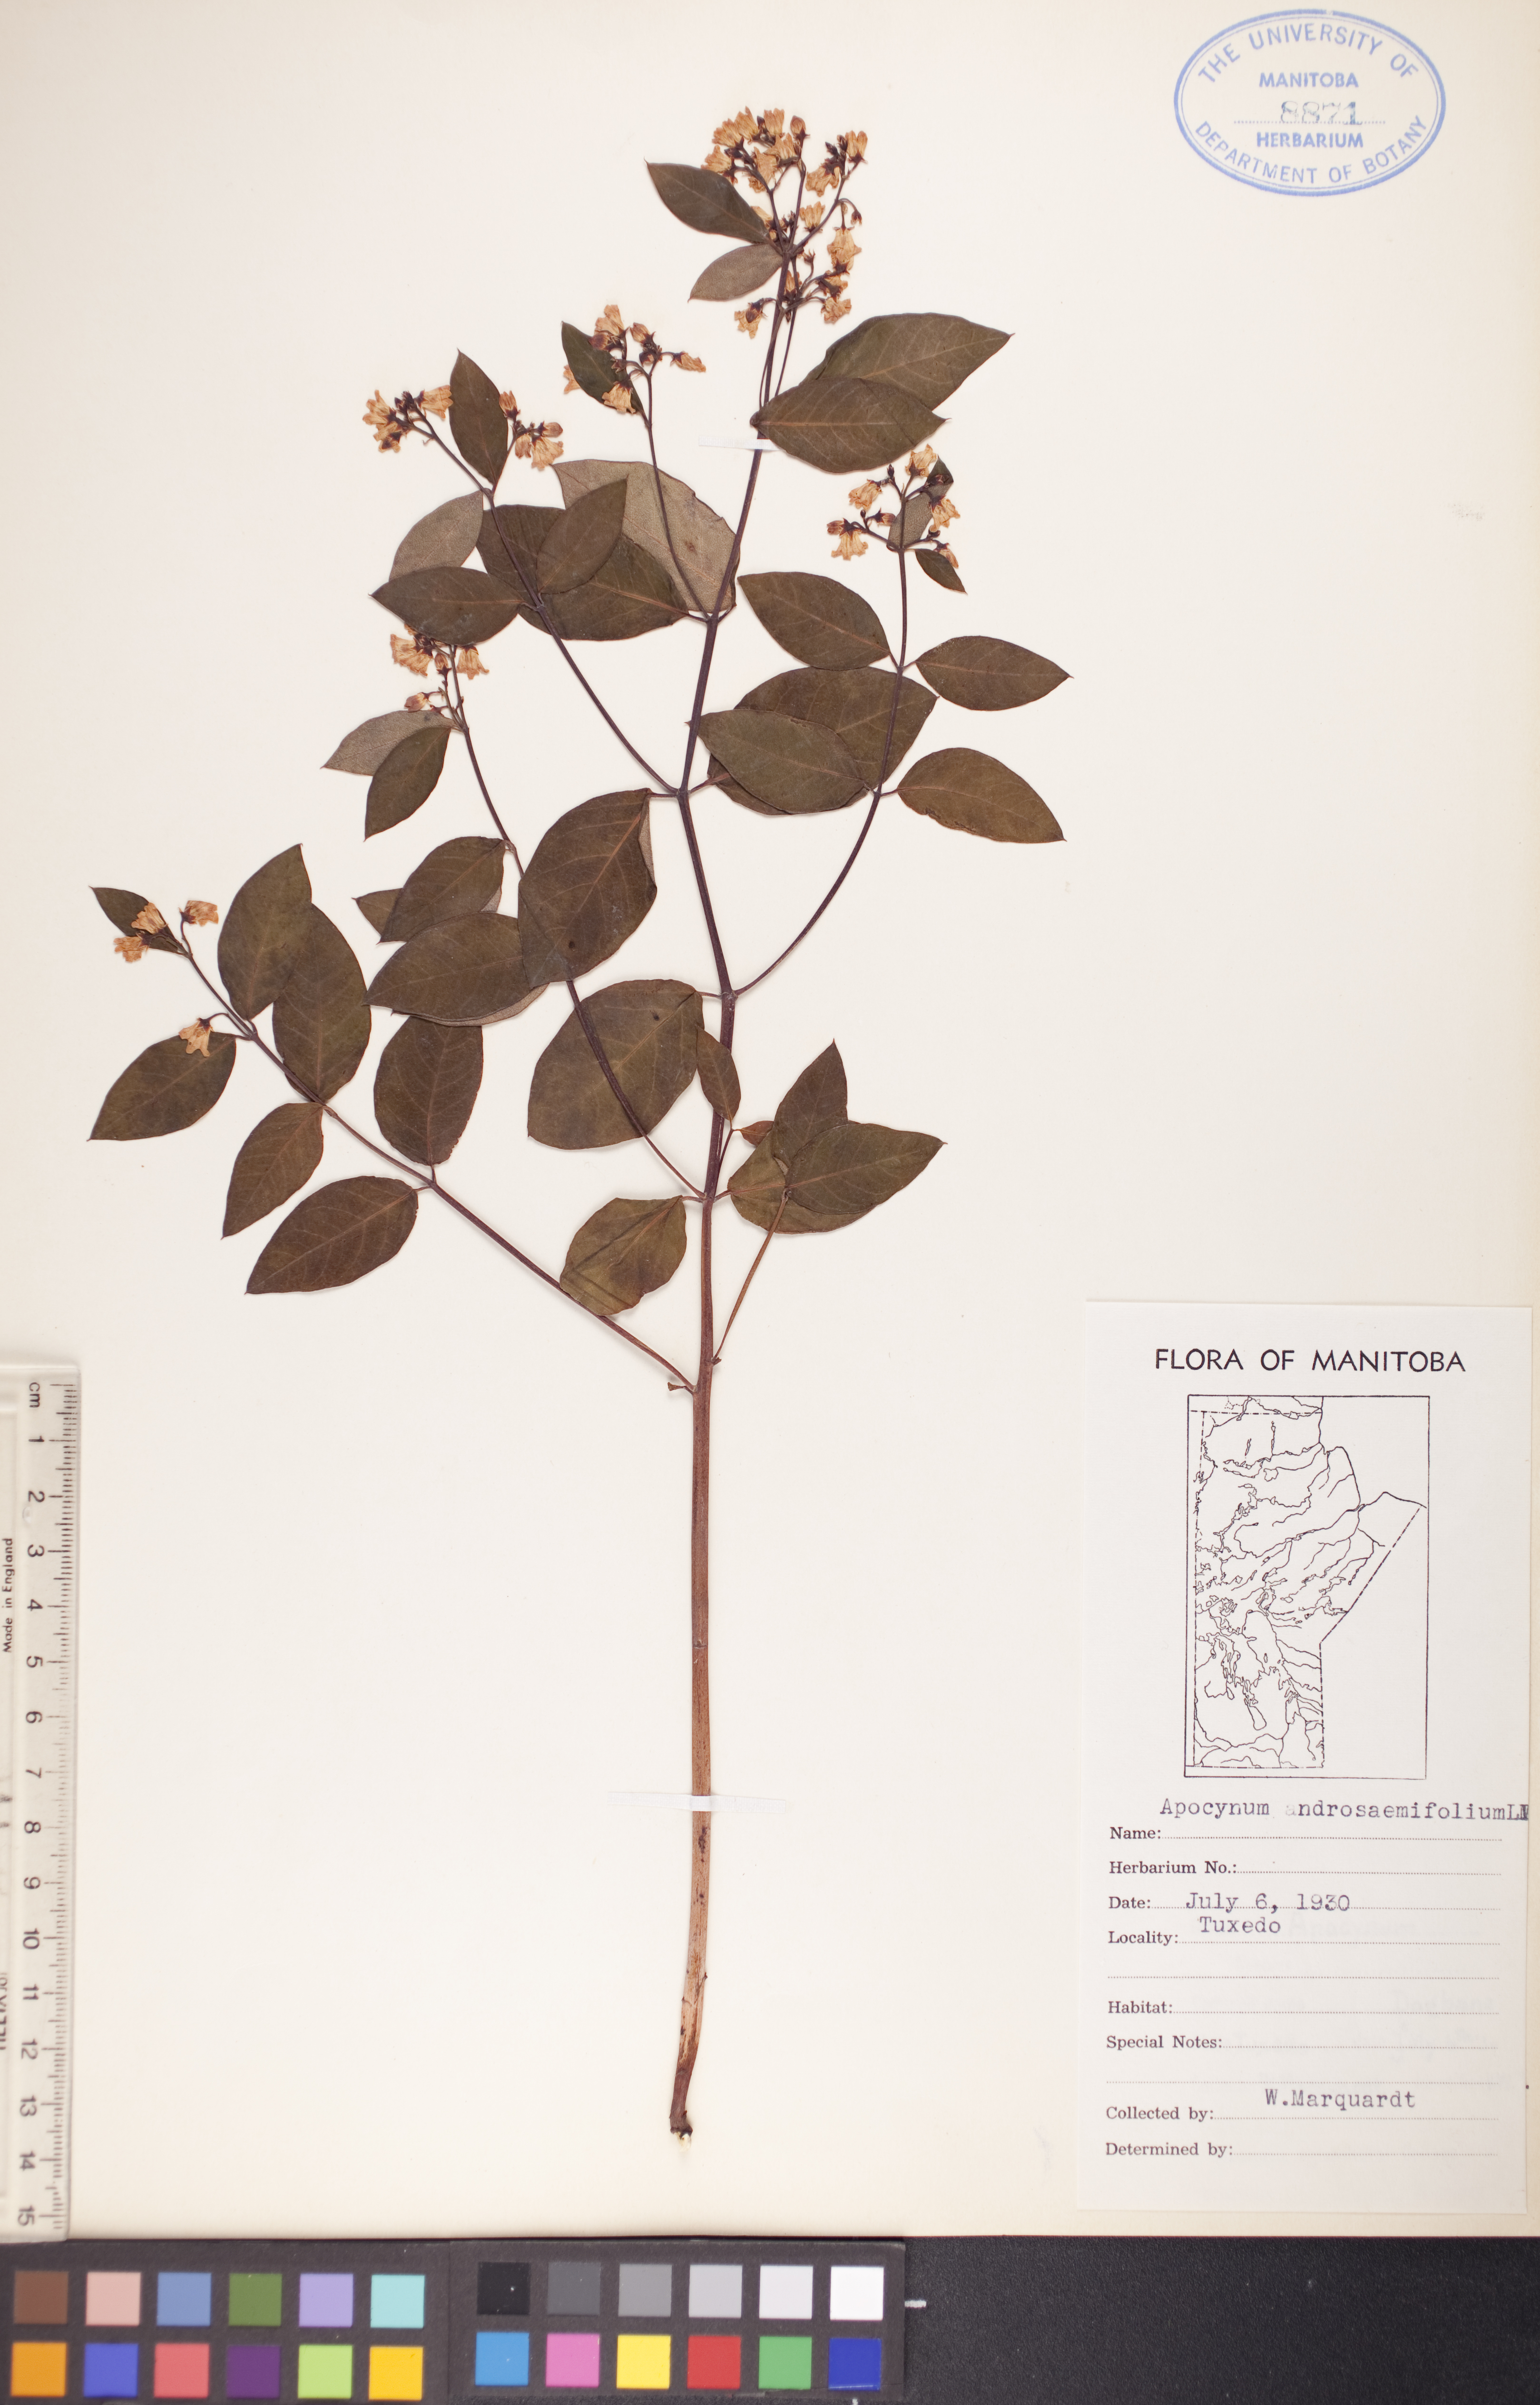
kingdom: Plantae
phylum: Tracheophyta
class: Magnoliopsida
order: Gentianales
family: Apocynaceae
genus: Apocynum
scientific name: Apocynum androsaemifolium
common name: Spreading dogbane
